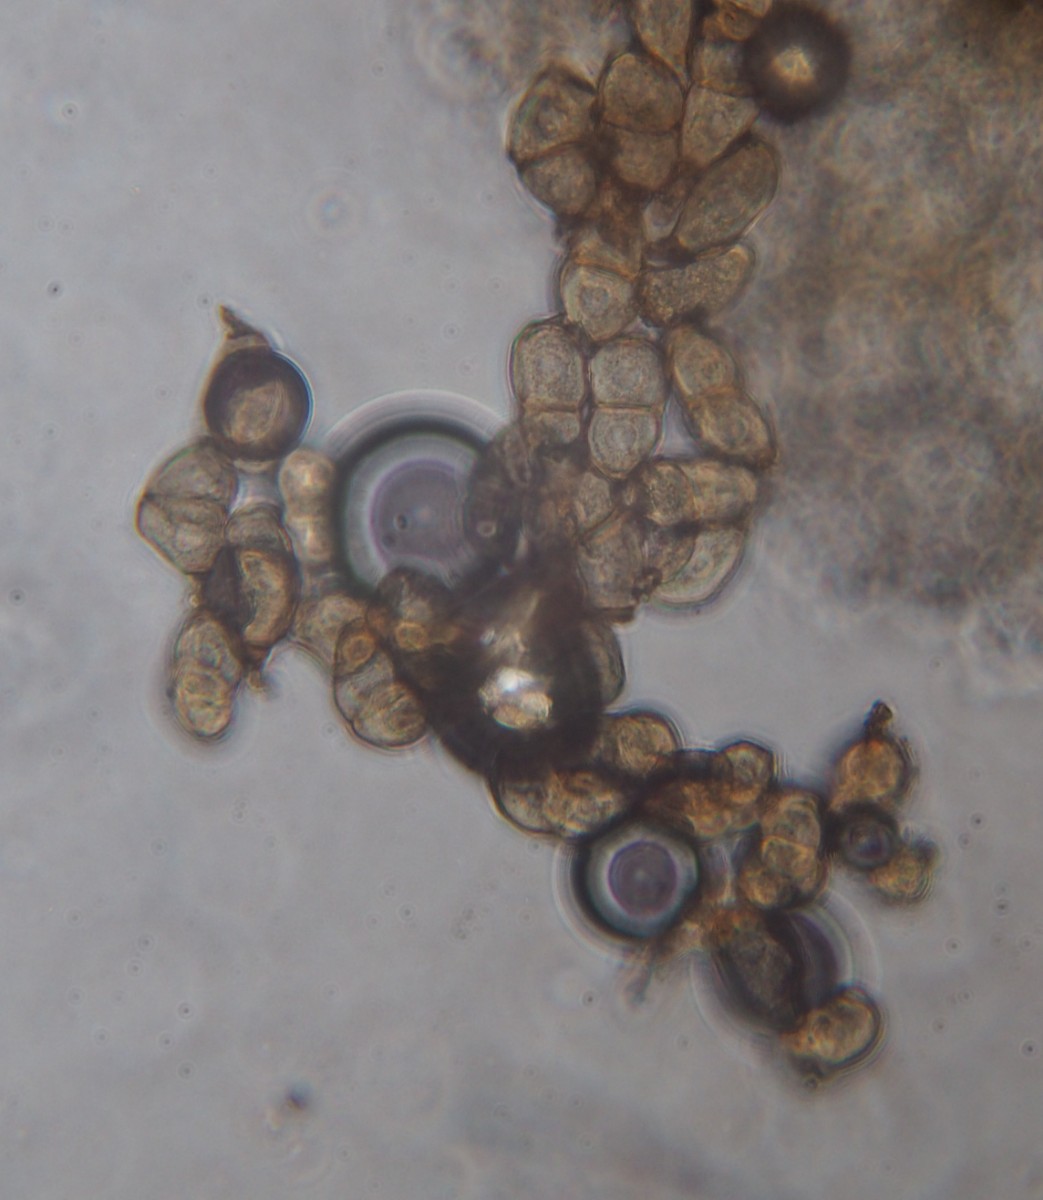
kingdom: Fungi
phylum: Basidiomycota
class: Pucciniomycetes
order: Pucciniales
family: Pucciniaceae
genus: Peristemma
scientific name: Peristemma pseudosphaeria
